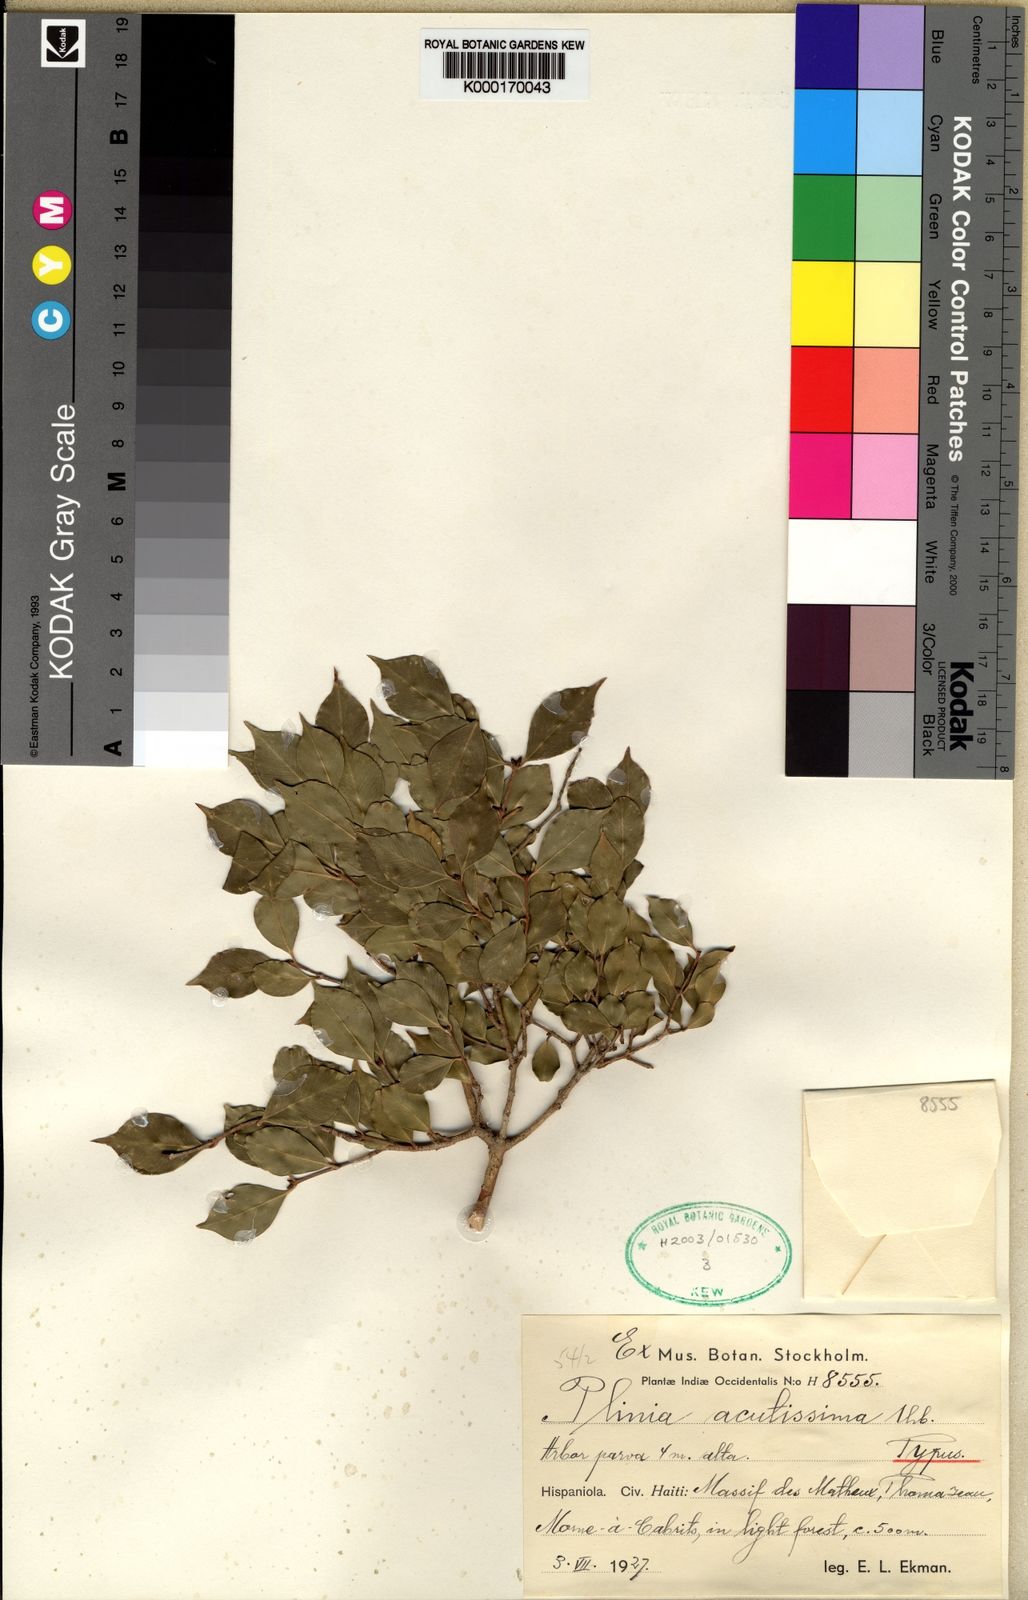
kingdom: Plantae
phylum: Tracheophyta
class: Magnoliopsida
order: Myrtales
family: Myrtaceae
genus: Myrciaria
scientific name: Myrciaria floribunda
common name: Guavaberry
